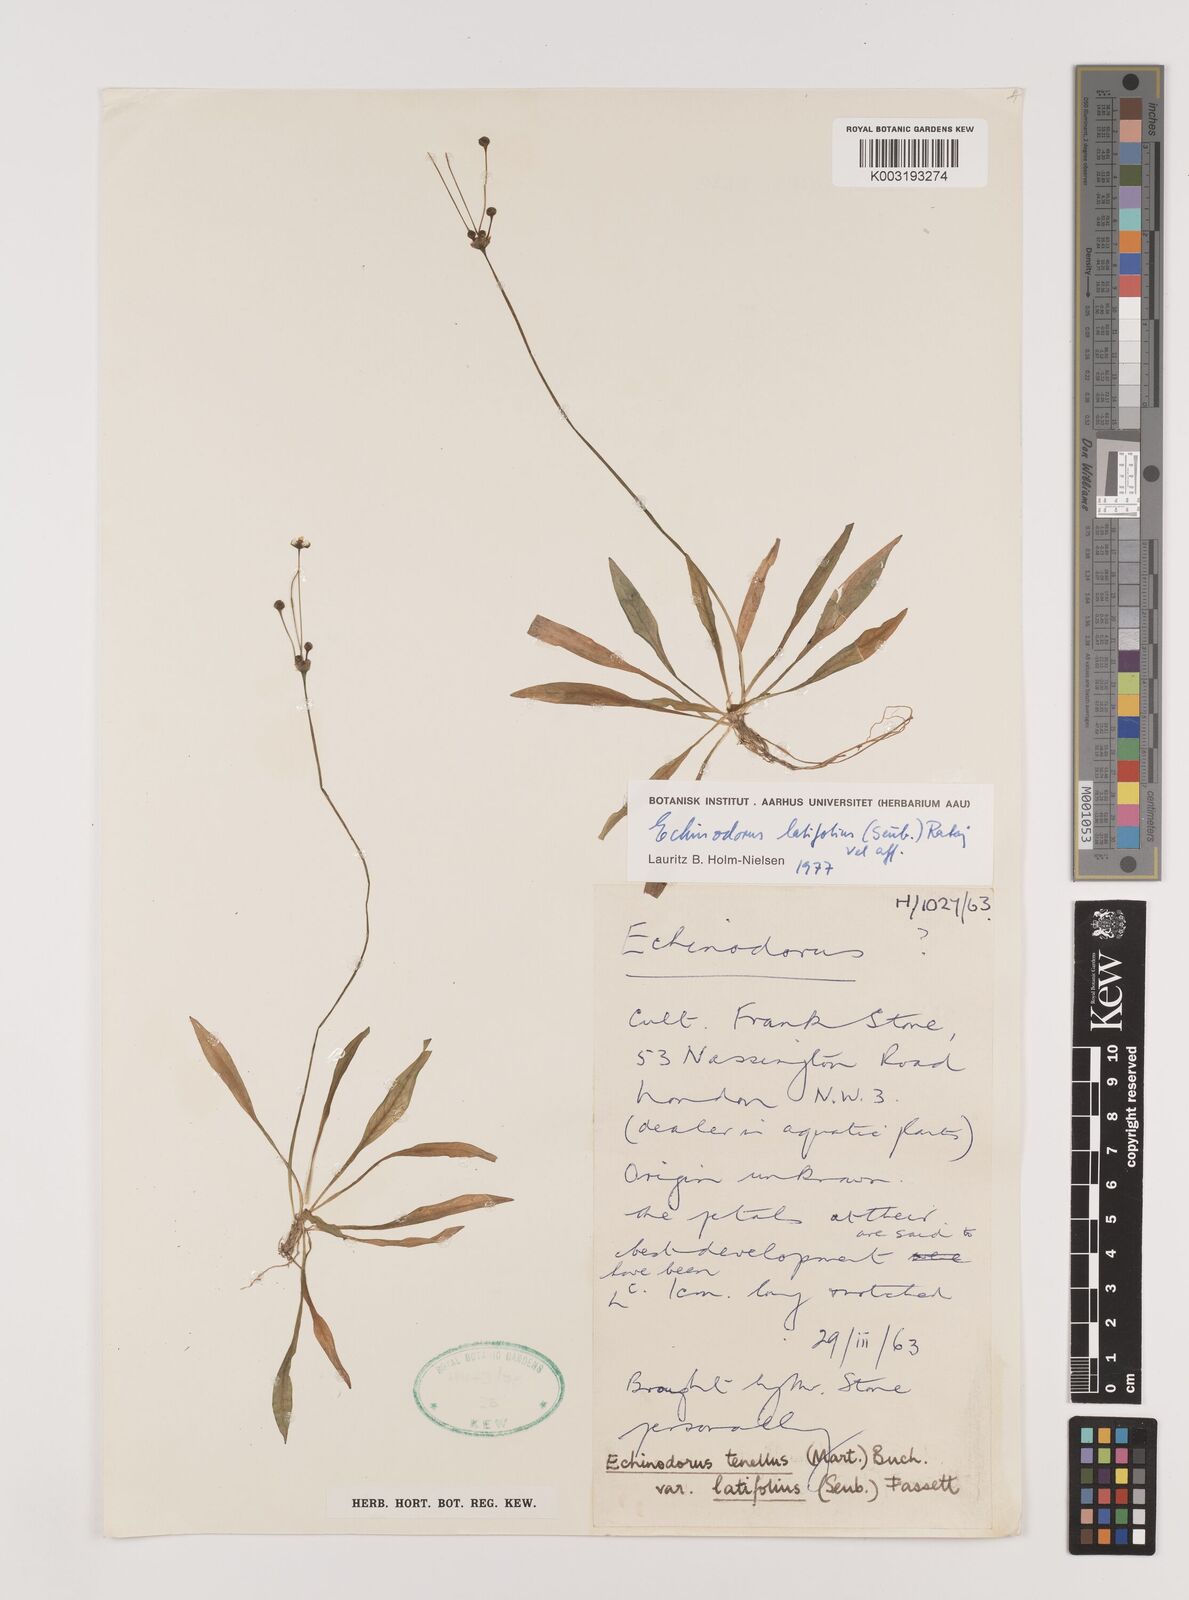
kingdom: Plantae
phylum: Tracheophyta
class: Liliopsida
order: Alismatales
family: Alismataceae
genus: Helanthium
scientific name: Helanthium bolivianum
